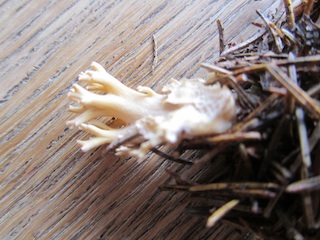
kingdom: Fungi
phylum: Basidiomycota
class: Agaricomycetes
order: Gomphales
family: Gomphaceae
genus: Phaeoclavulina
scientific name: Phaeoclavulina eumorpha
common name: gran-koralsvamp
